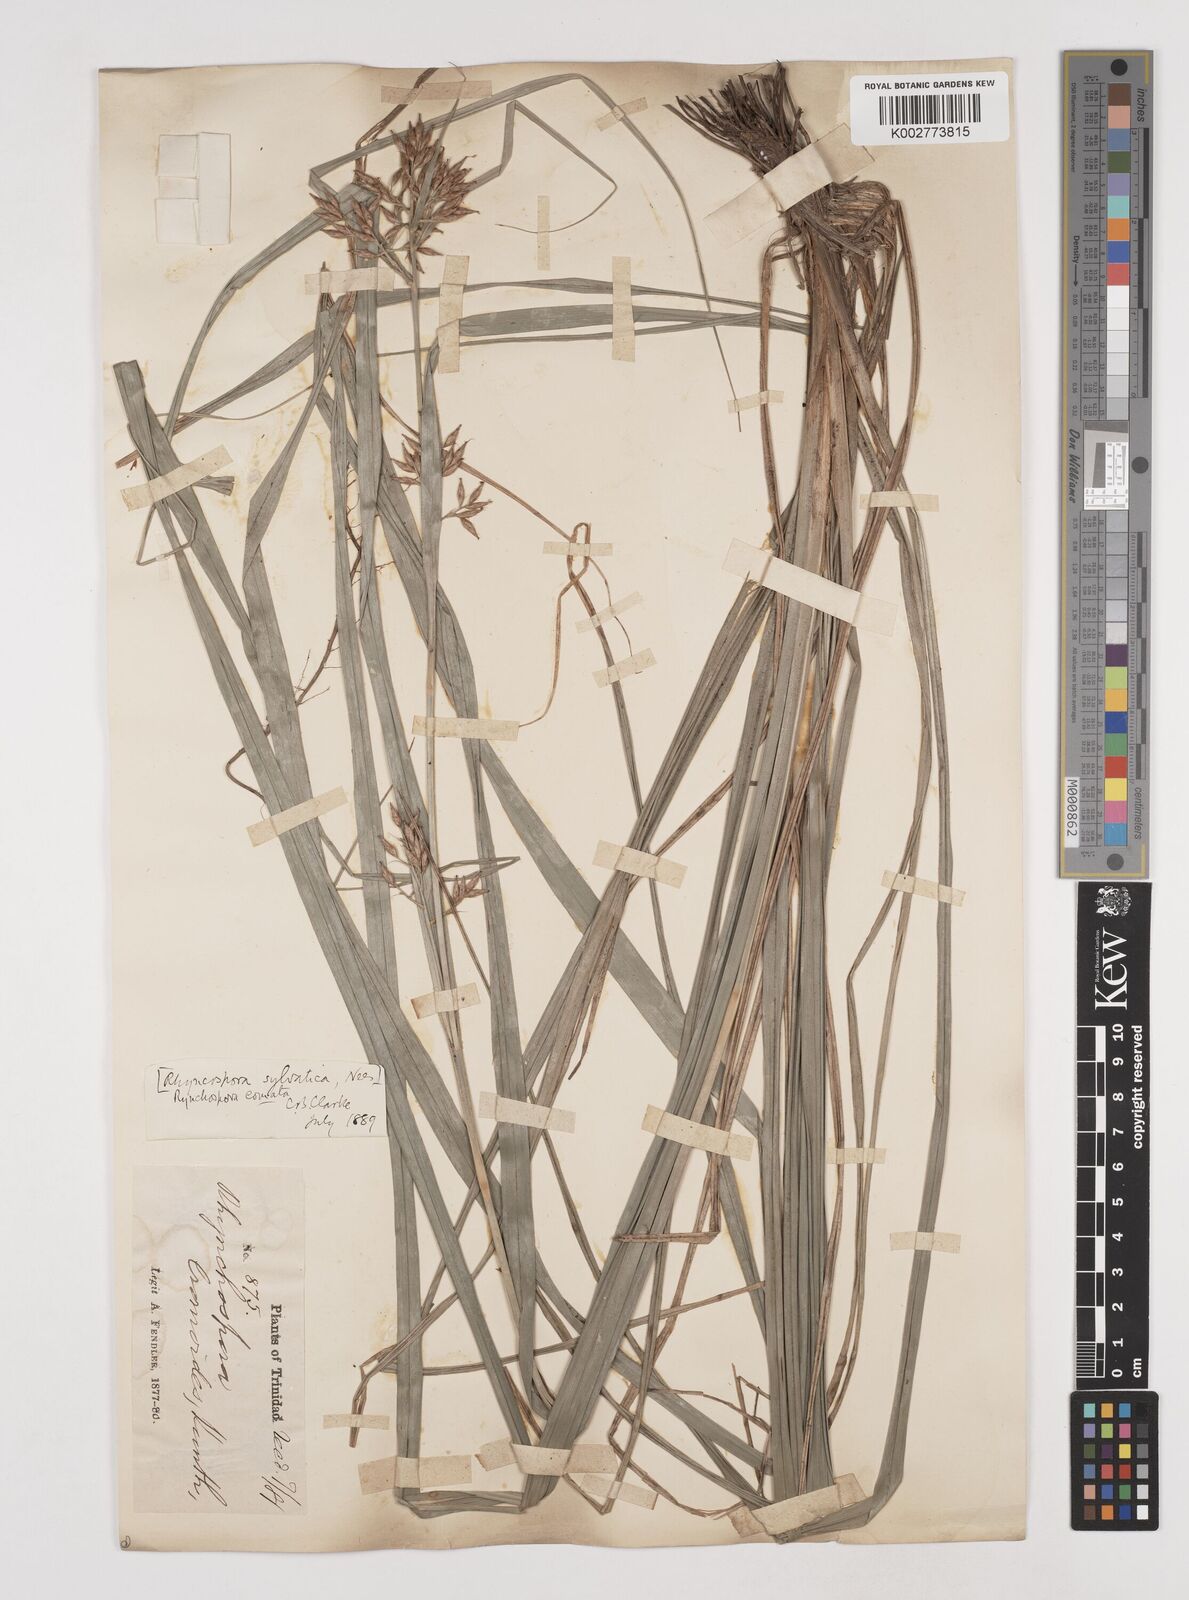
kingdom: Plantae
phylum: Tracheophyta
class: Liliopsida
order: Poales
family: Cyperaceae
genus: Rhynchospora
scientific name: Rhynchospora comata
